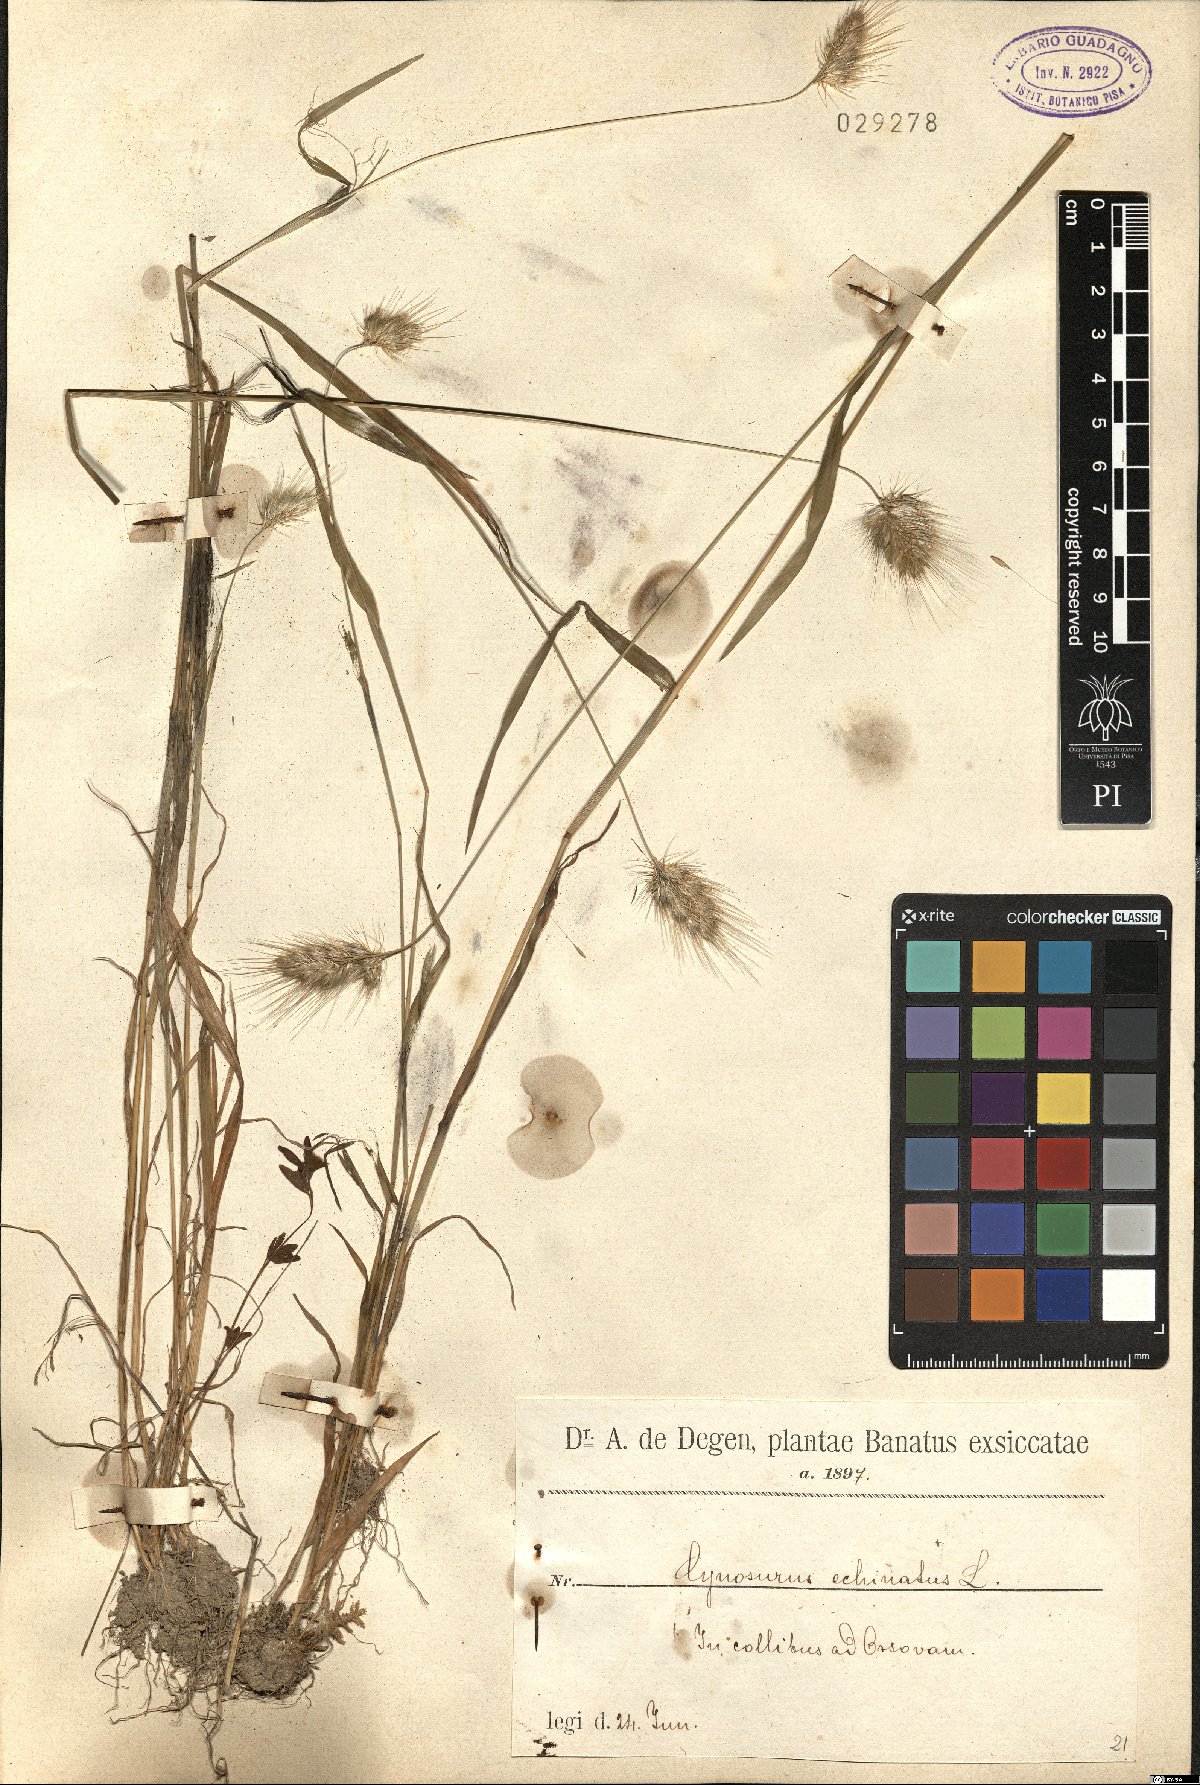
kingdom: Plantae
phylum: Tracheophyta
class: Liliopsida
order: Poales
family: Poaceae
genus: Cynosurus
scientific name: Cynosurus echinatus
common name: Rough dog's-tail
